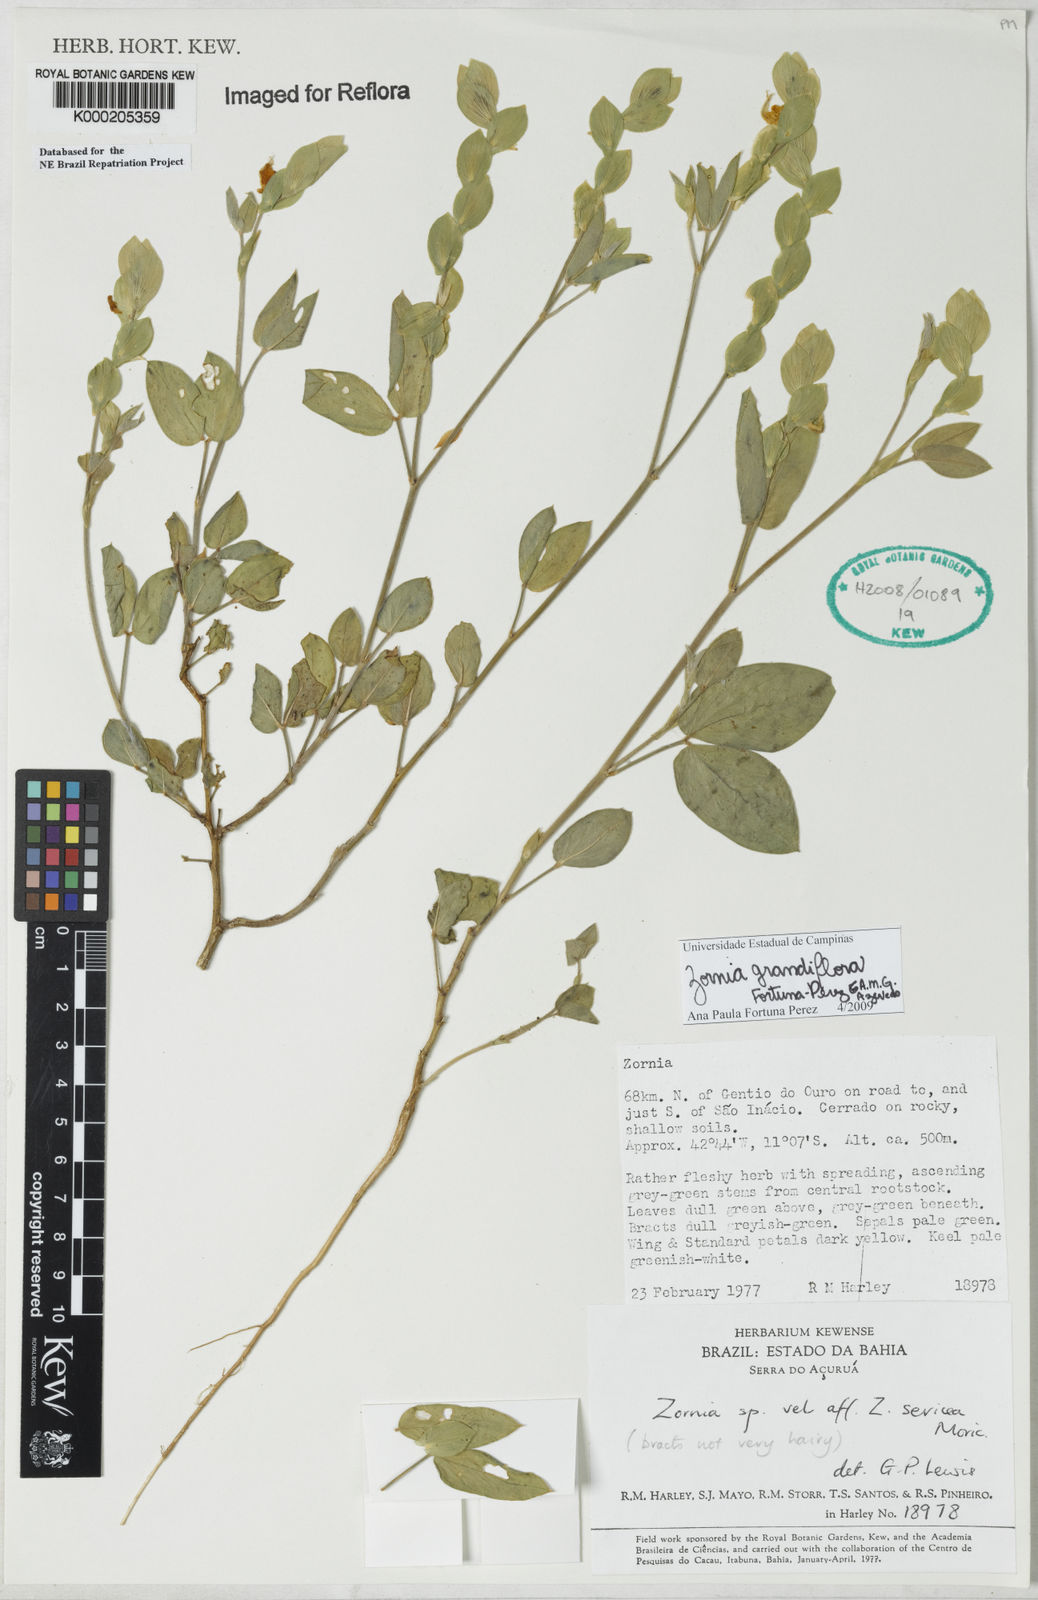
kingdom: Plantae
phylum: Tracheophyta
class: Magnoliopsida
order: Fabales
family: Fabaceae
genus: Zornia
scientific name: Zornia sericea
